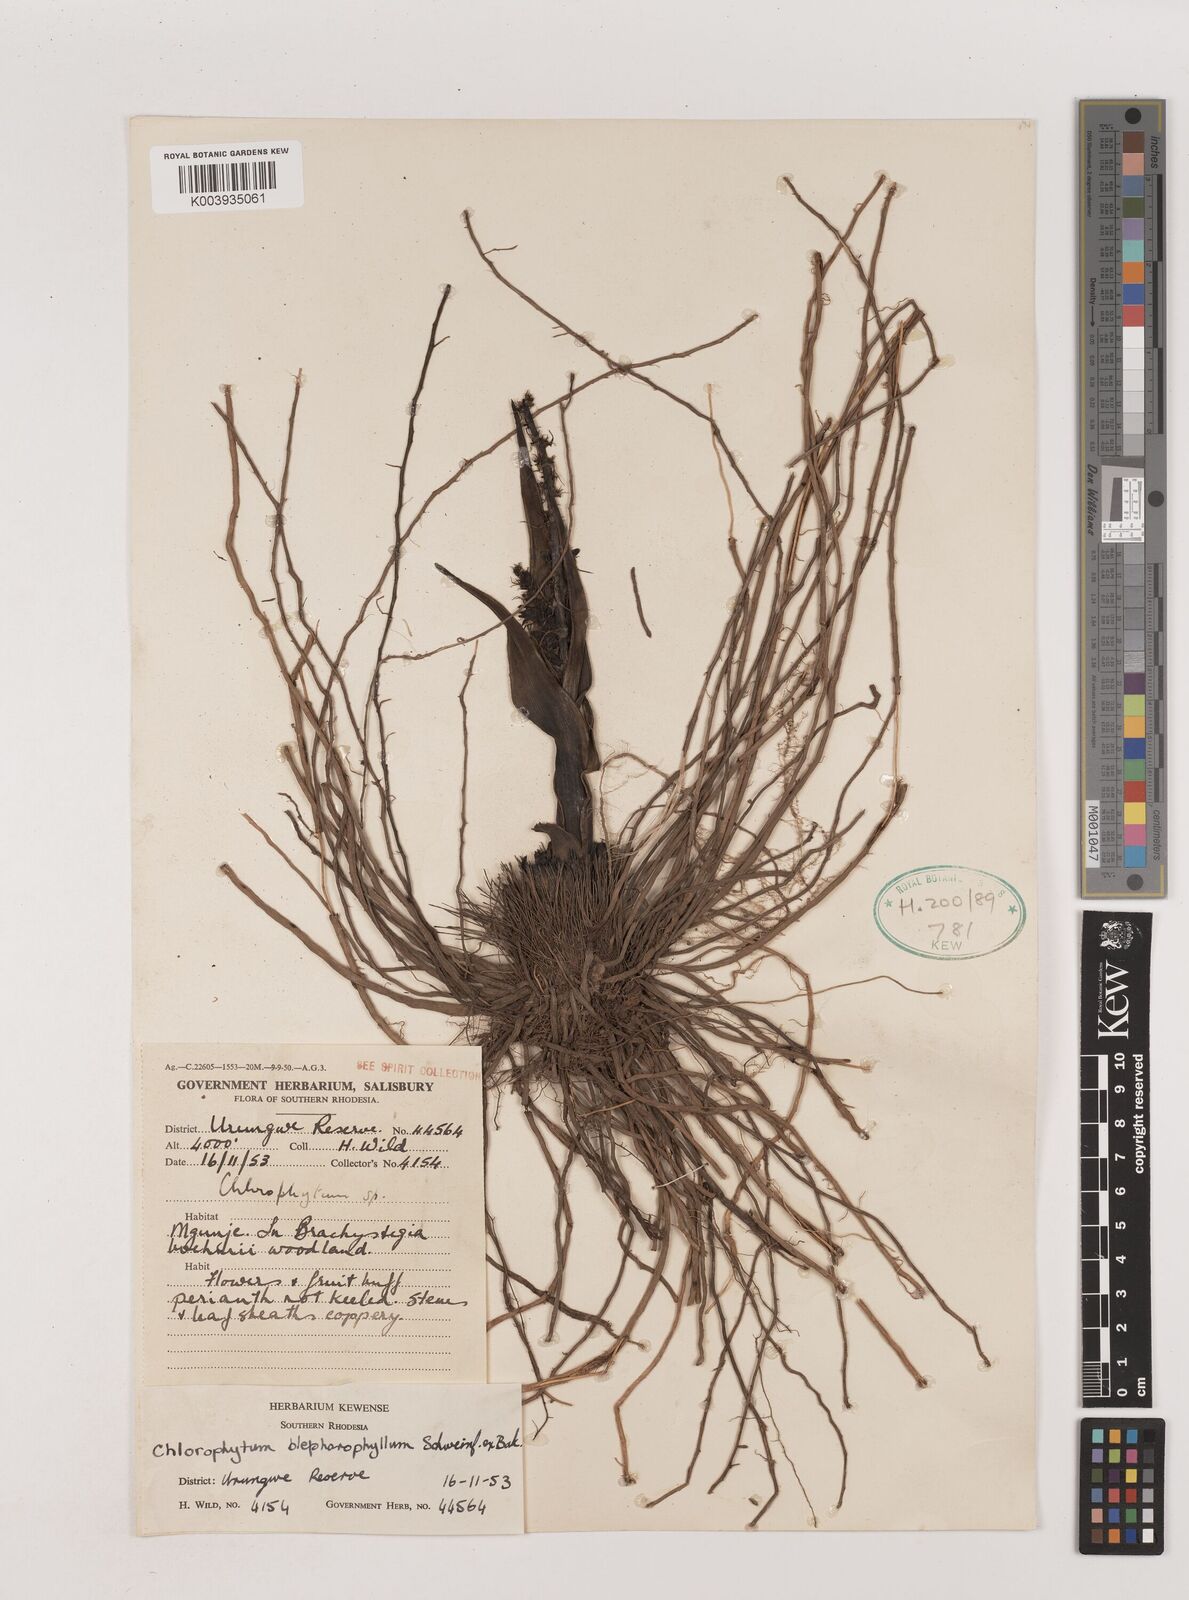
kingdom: Plantae
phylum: Tracheophyta
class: Liliopsida
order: Asparagales
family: Asparagaceae
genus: Chlorophytum
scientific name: Chlorophytum blepharophyllum
